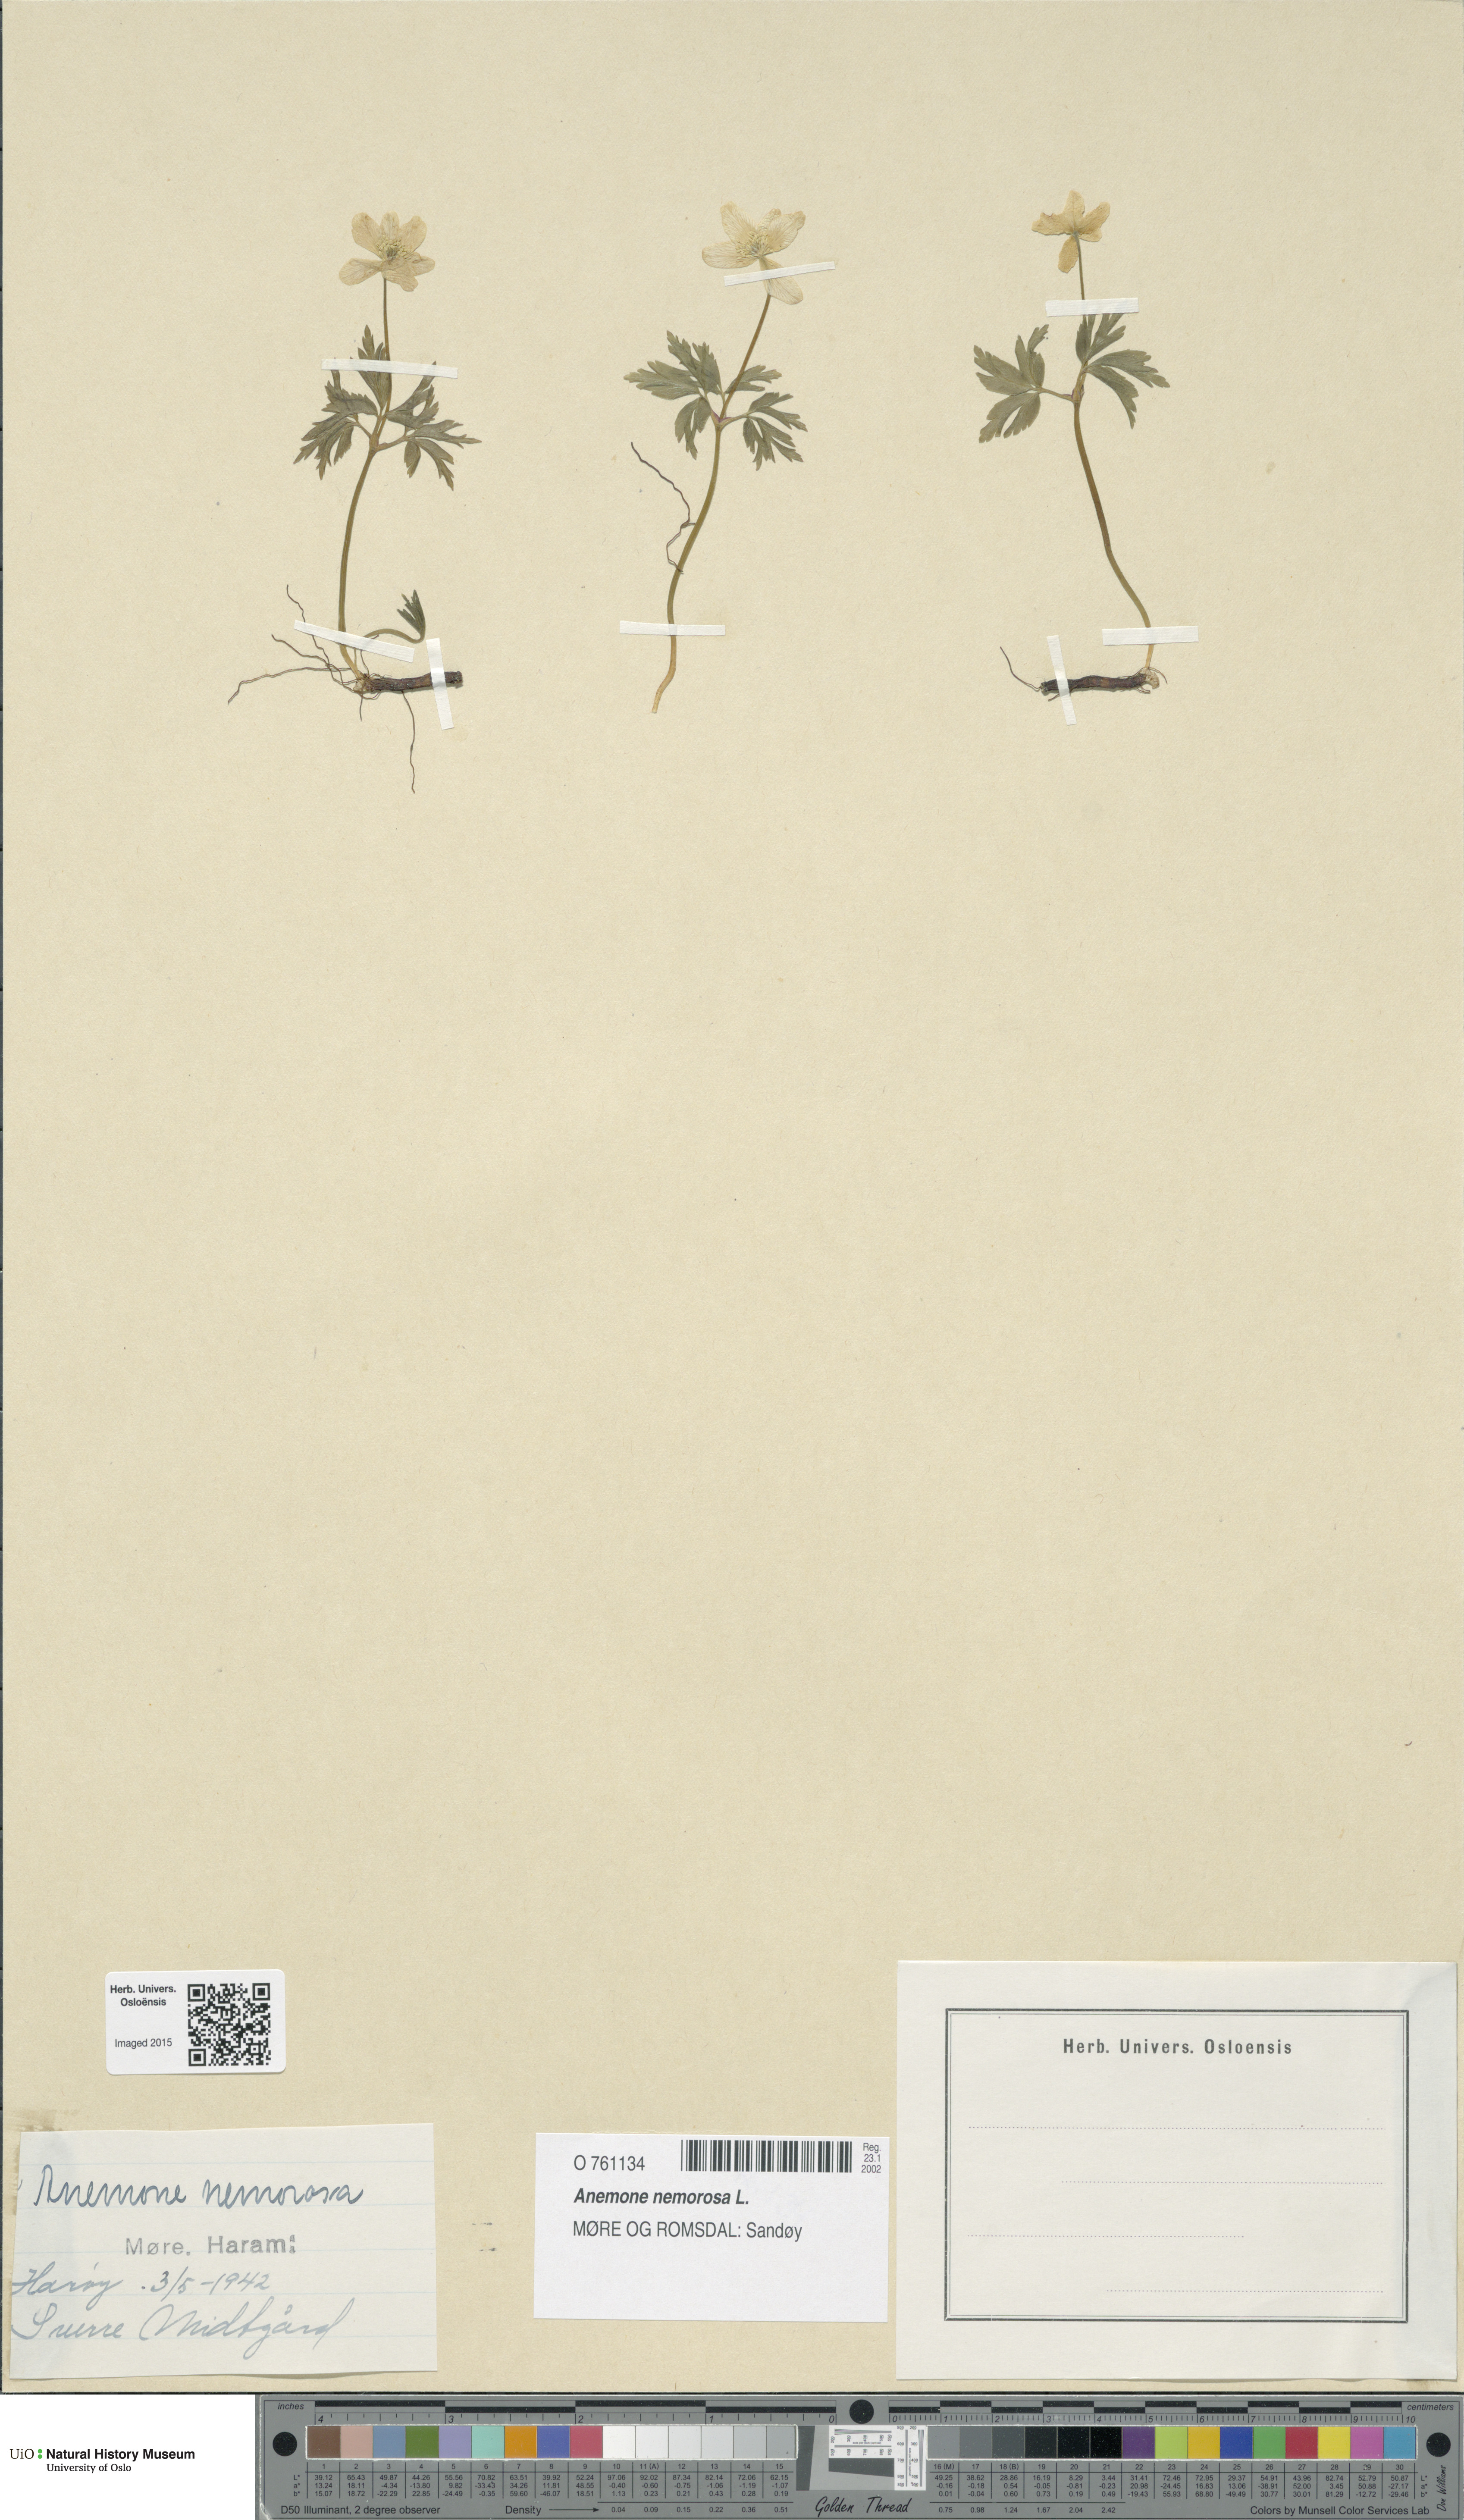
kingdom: Plantae
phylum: Tracheophyta
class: Magnoliopsida
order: Ranunculales
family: Ranunculaceae
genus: Anemone
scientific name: Anemone nemorosa
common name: Wood anemone
